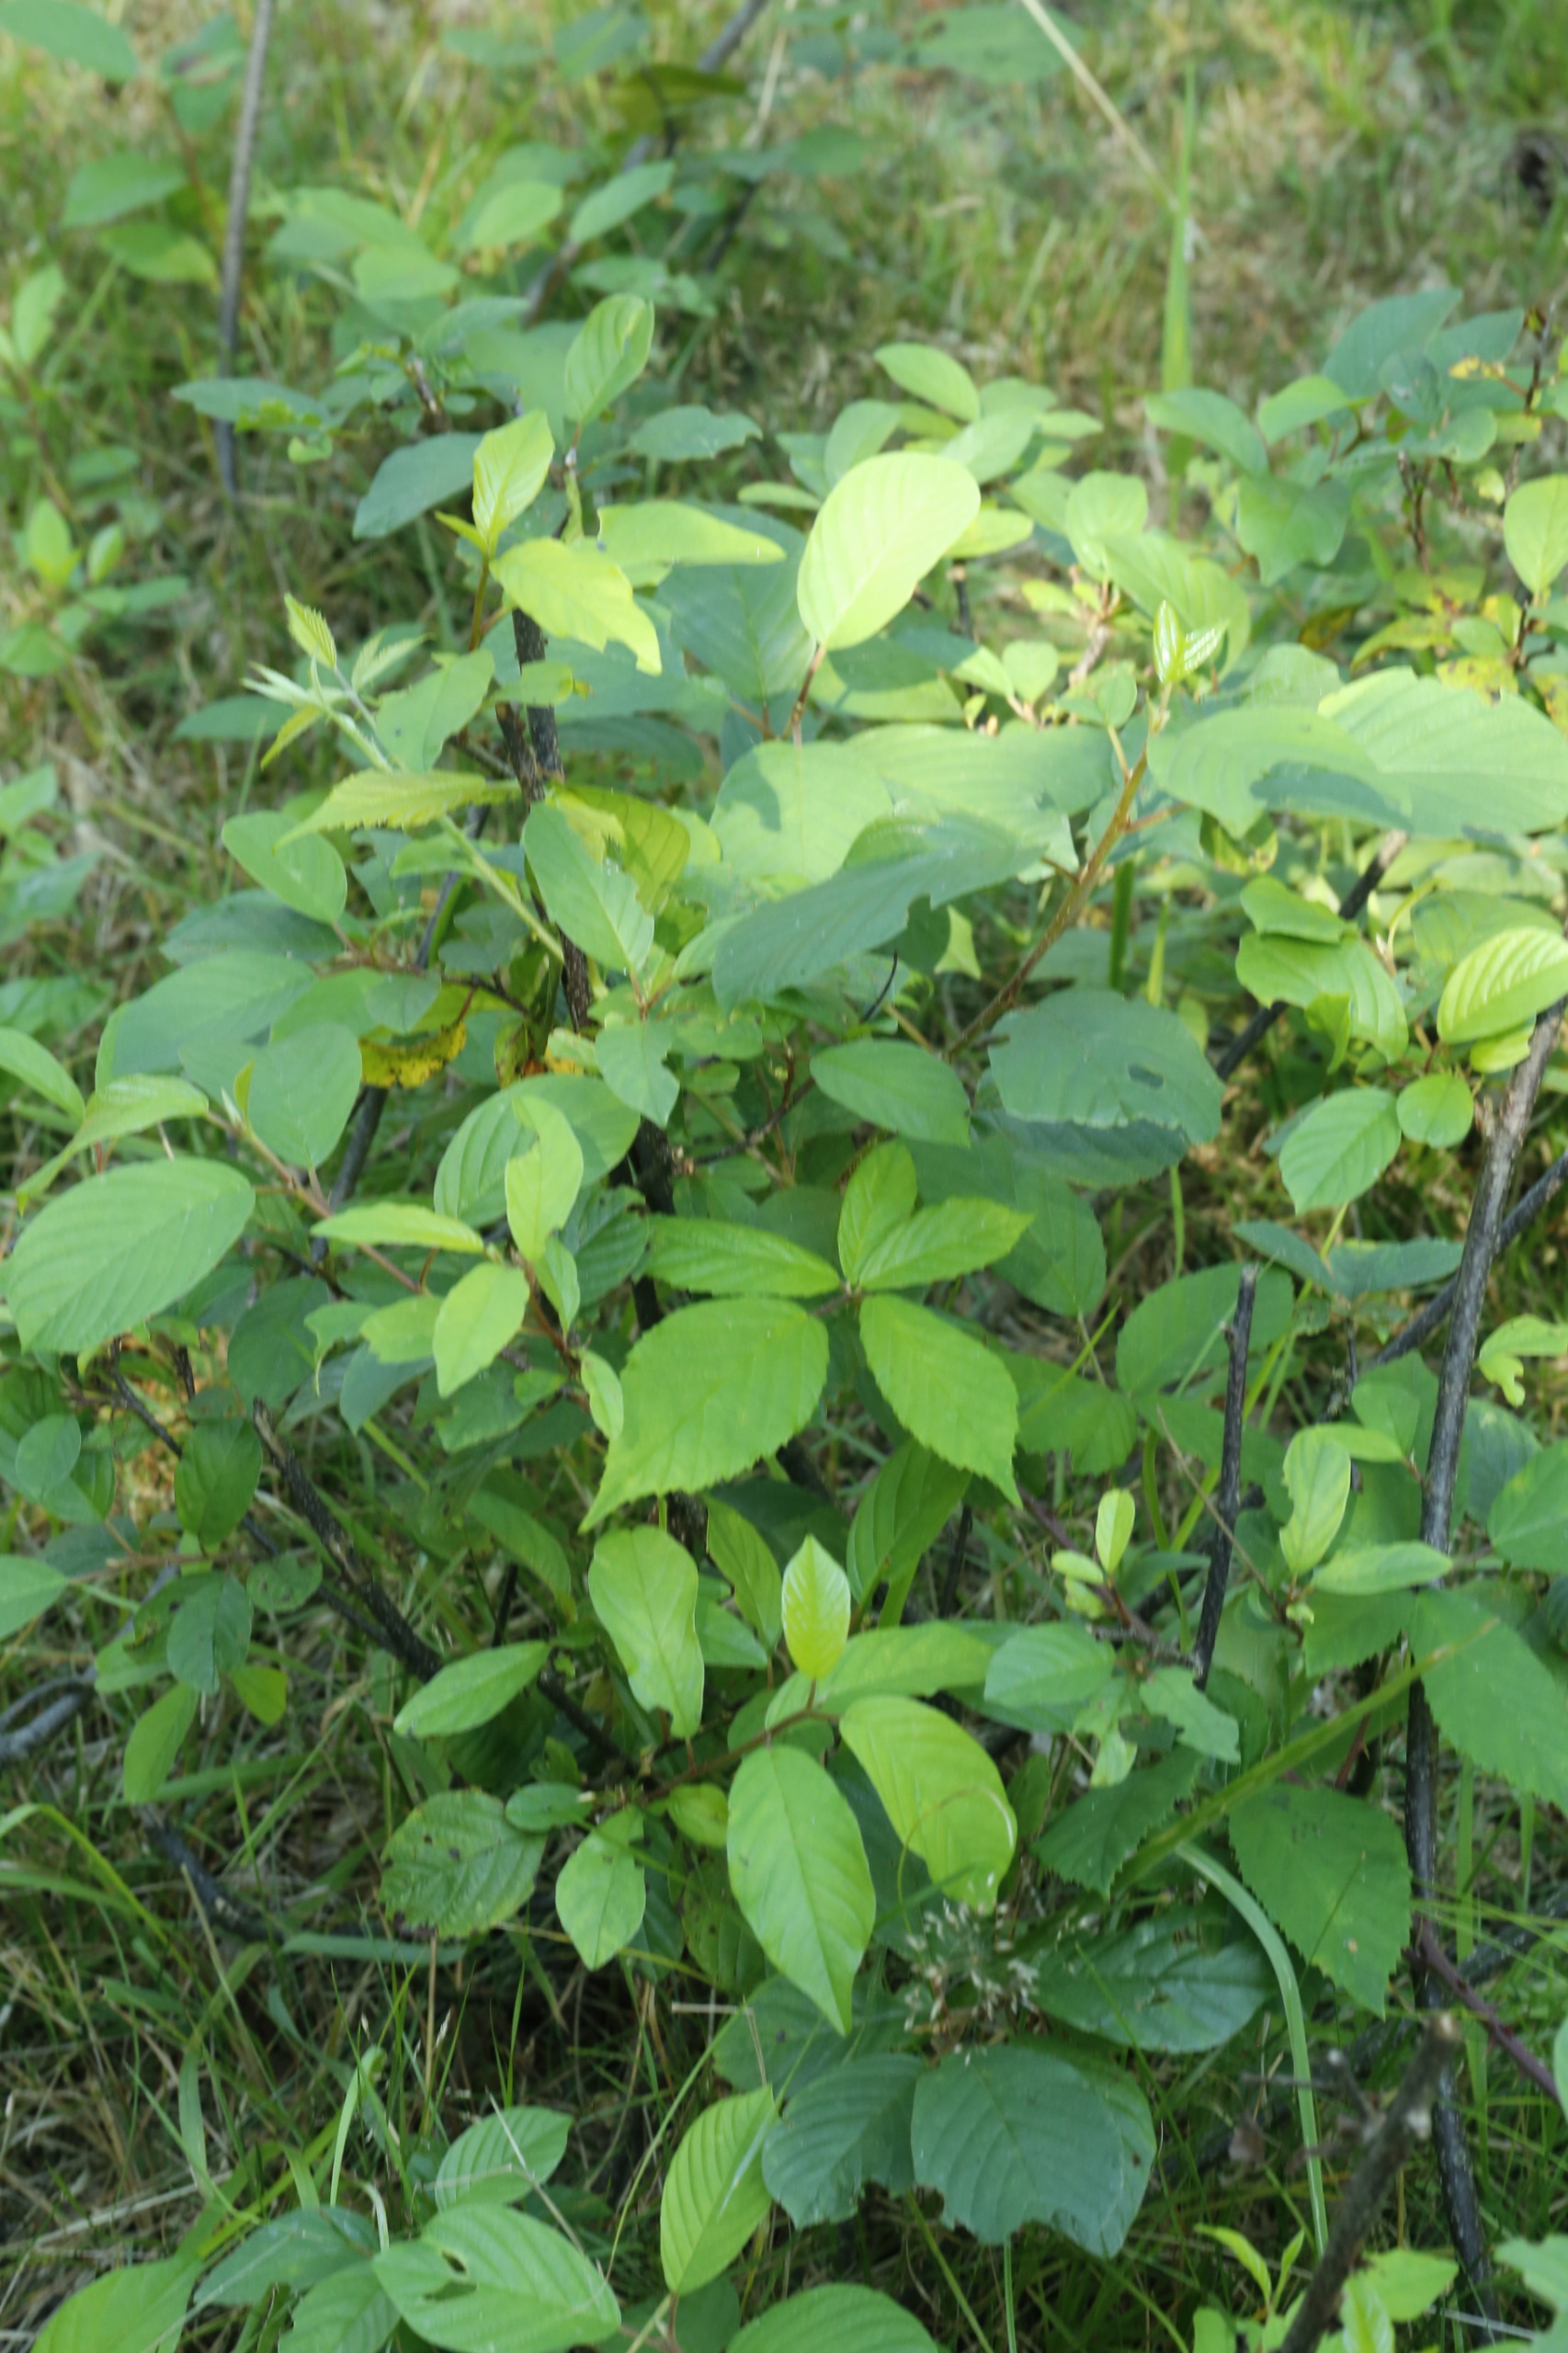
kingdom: Plantae
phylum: Tracheophyta
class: Magnoliopsida
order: Rosales
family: Rhamnaceae
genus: Frangula
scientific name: Frangula alnus
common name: Tørst
